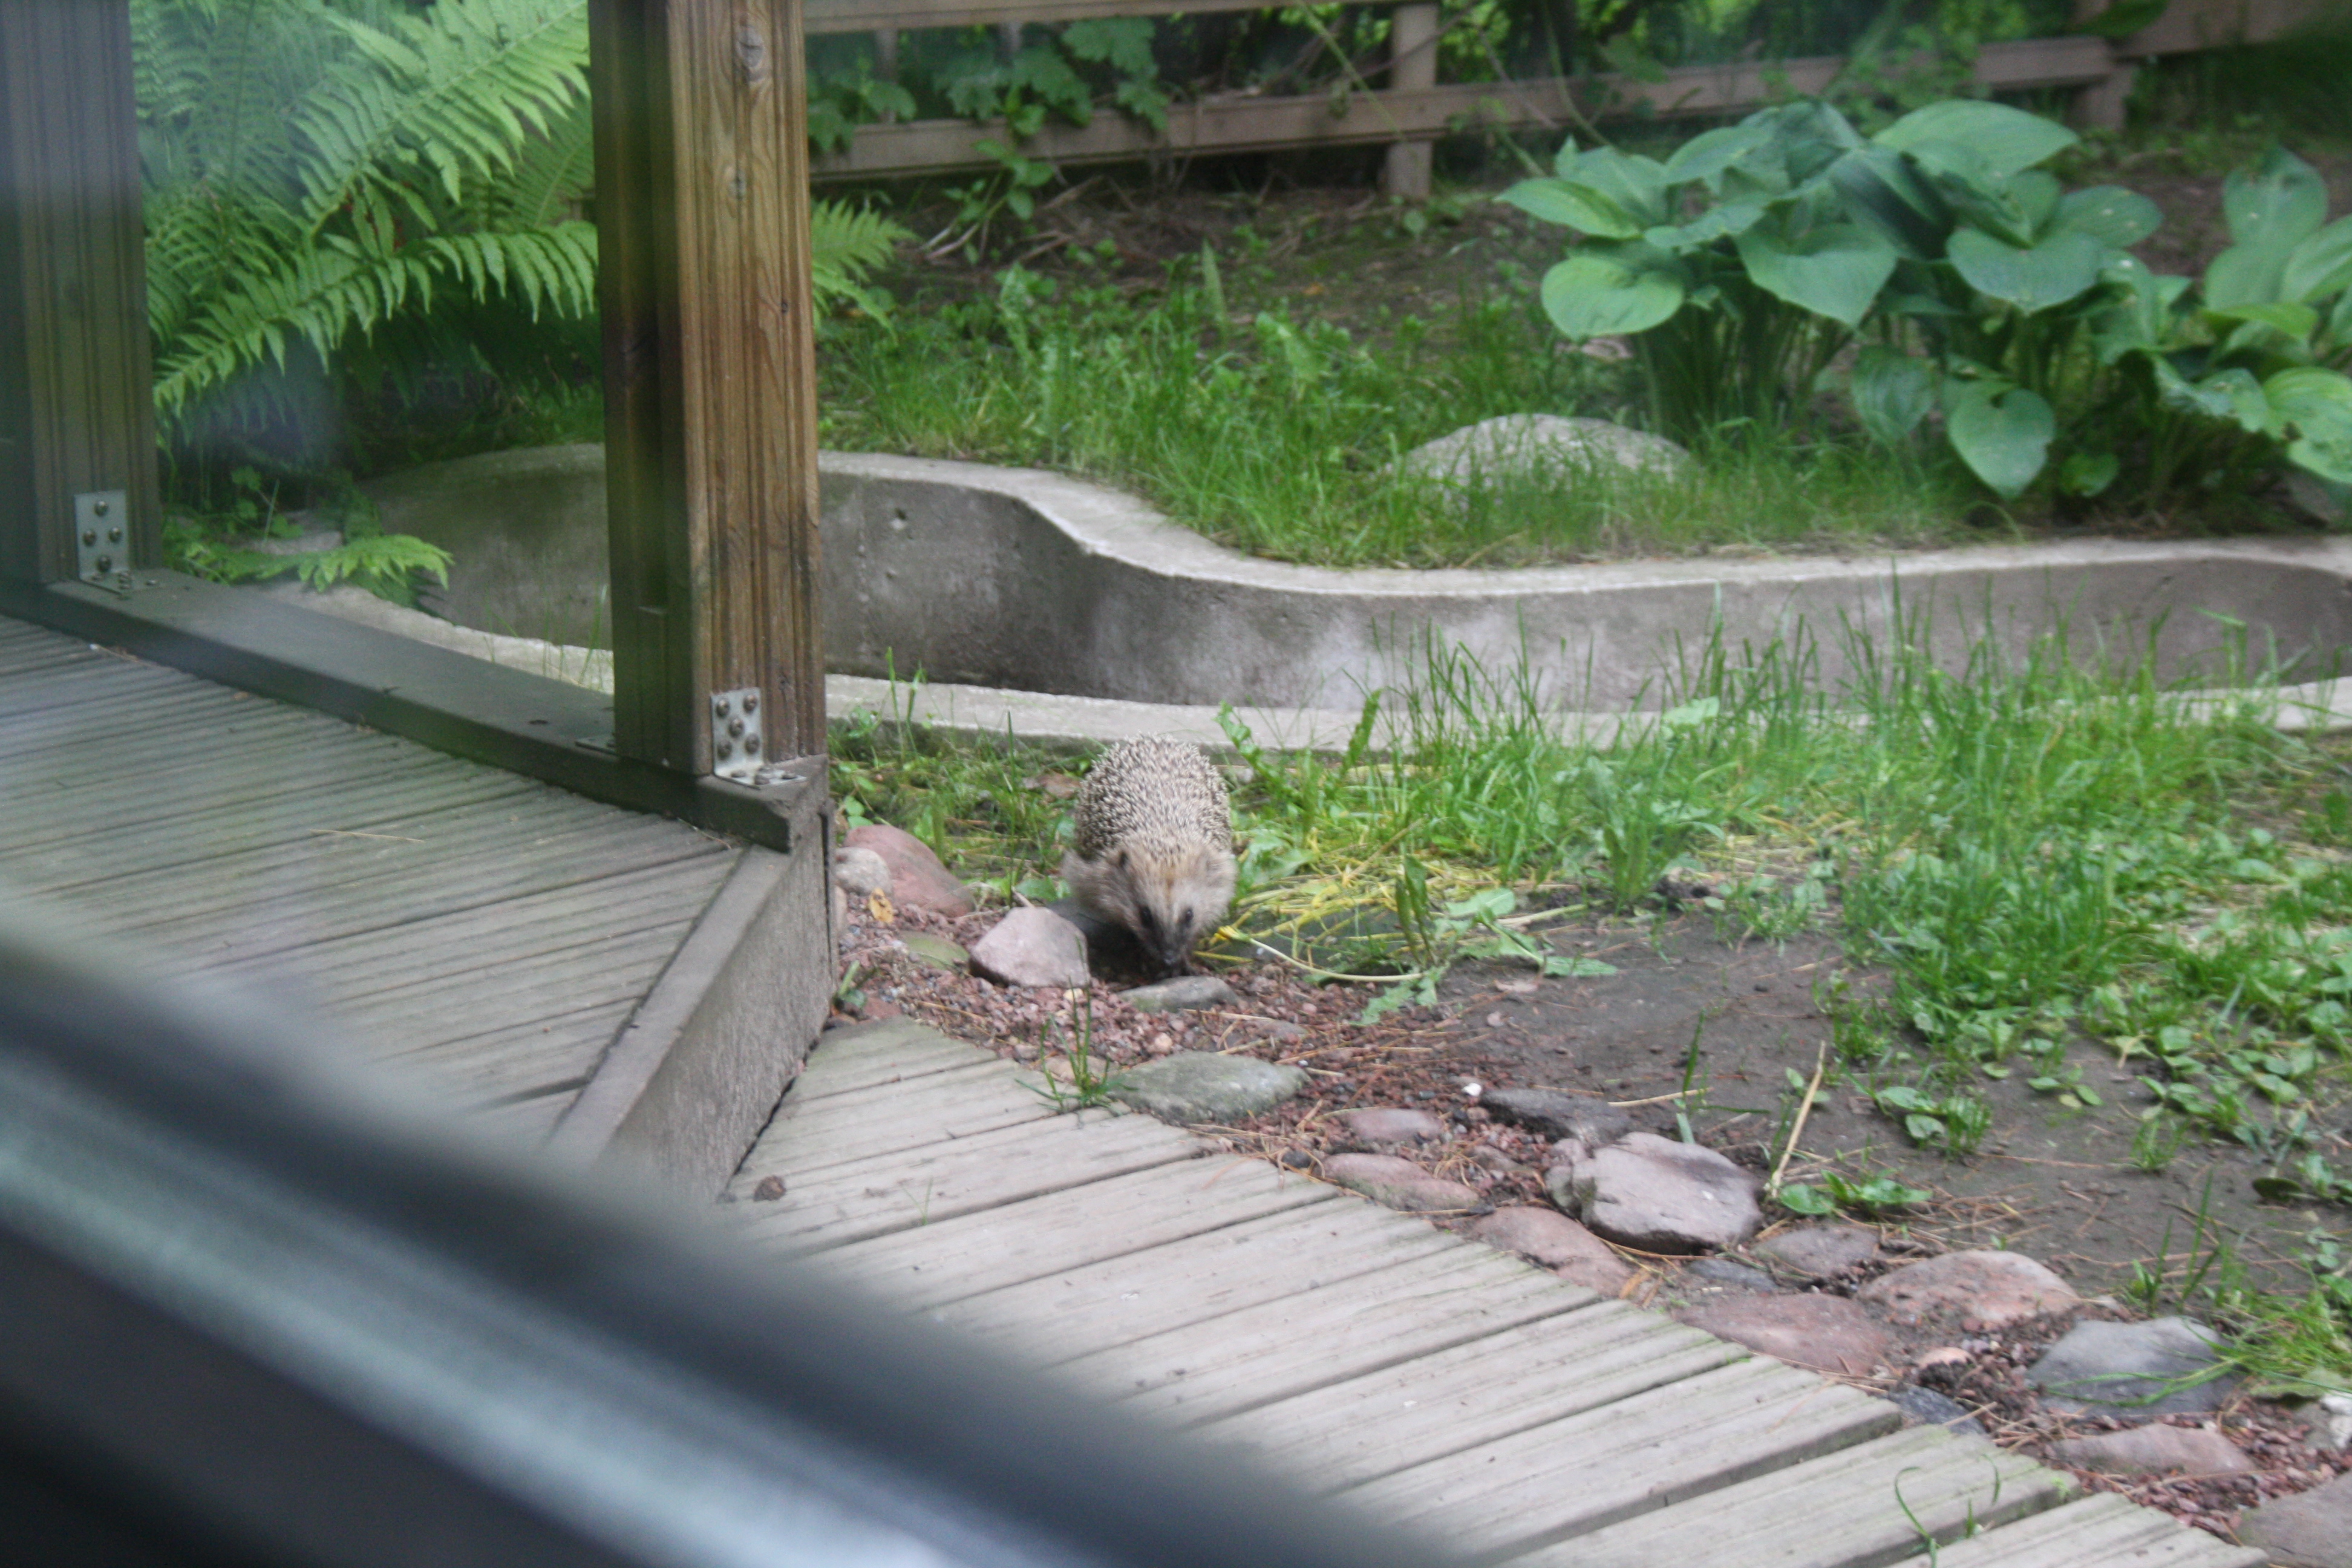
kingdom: Animalia
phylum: Chordata
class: Mammalia
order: Erinaceomorpha
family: Erinaceidae
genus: Erinaceus
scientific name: Erinaceus europaeus
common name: West european hedgehog
